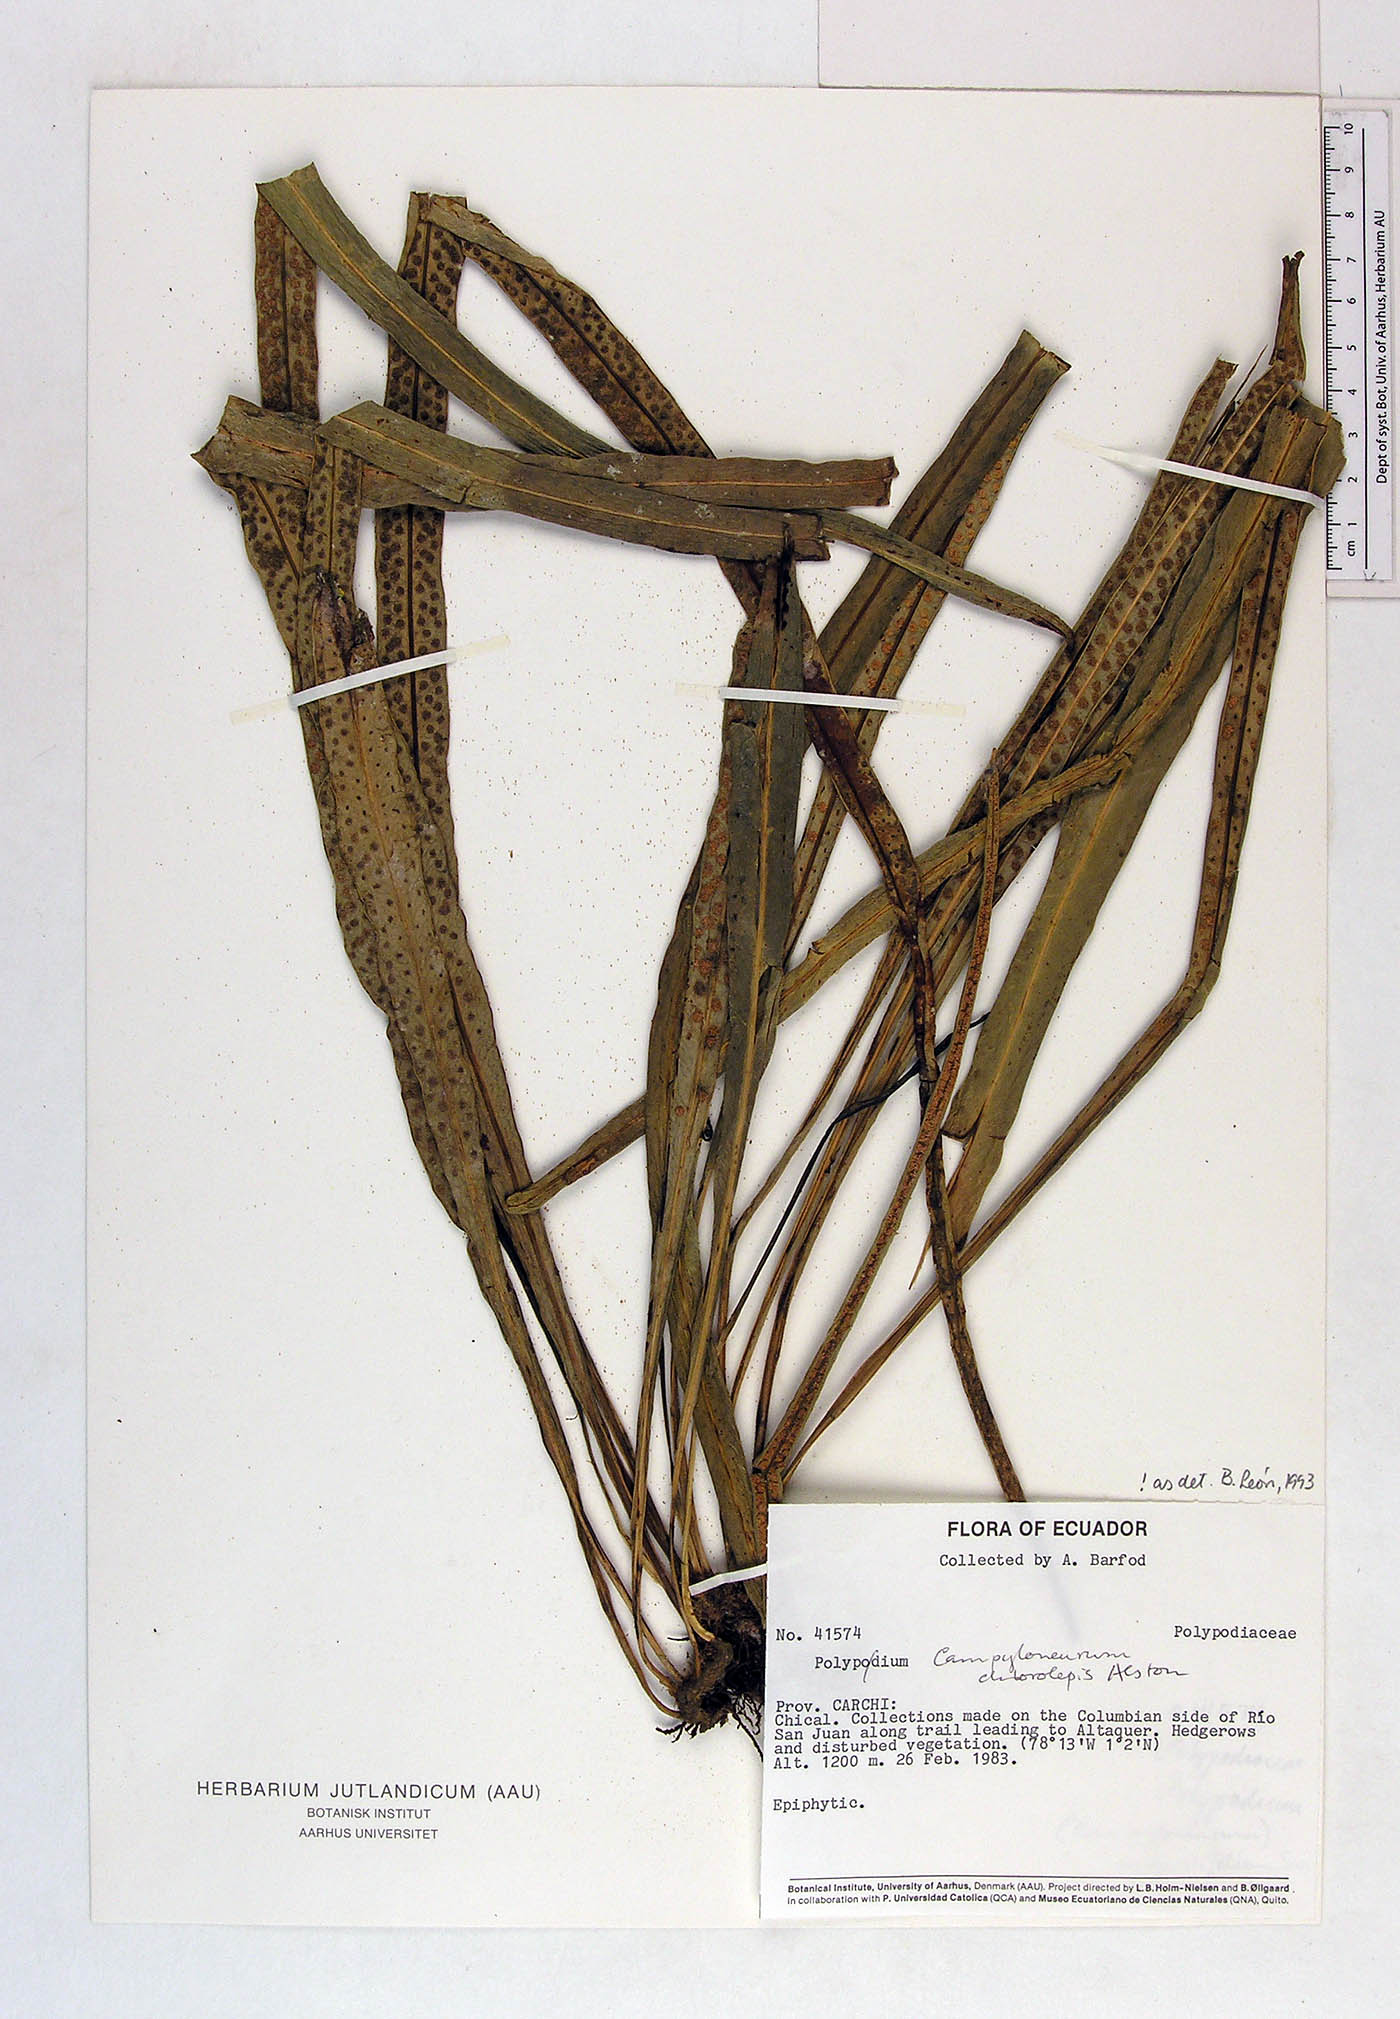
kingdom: Plantae
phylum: Tracheophyta
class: Polypodiopsida
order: Polypodiales
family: Polypodiaceae
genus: Polypodium
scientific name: Polypodium
